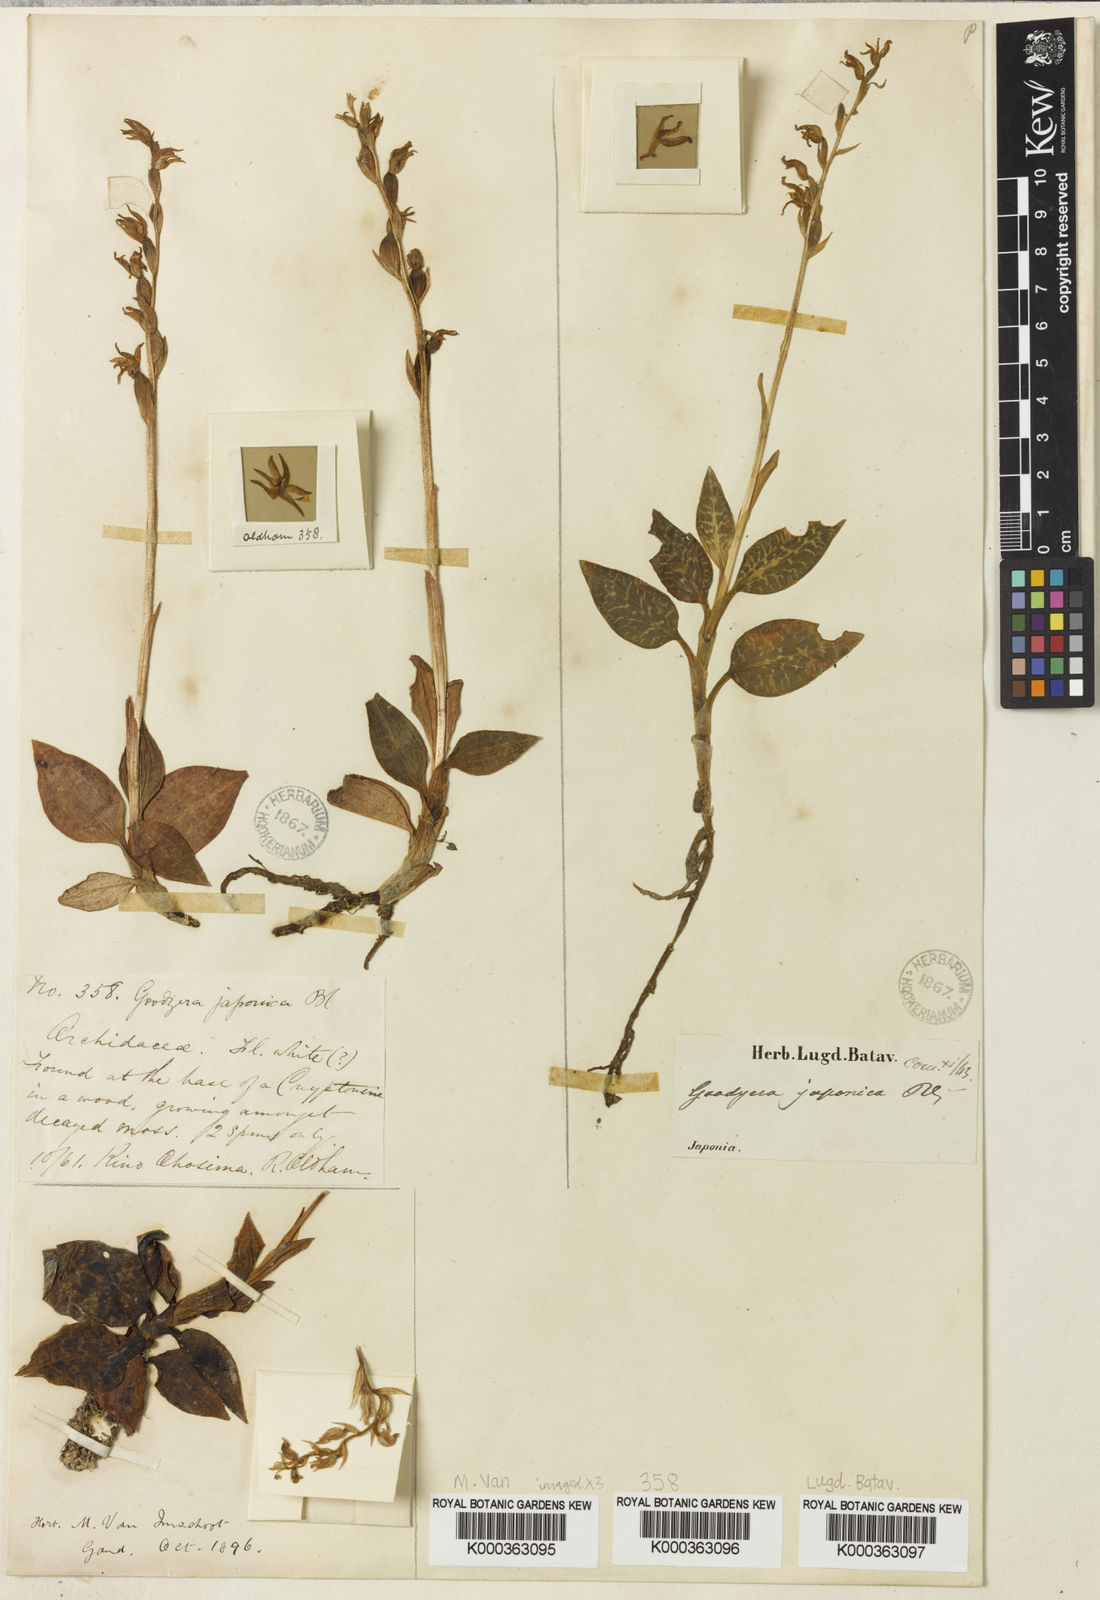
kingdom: Plantae
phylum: Tracheophyta
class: Liliopsida
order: Asparagales
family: Orchidaceae
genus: Goodyera
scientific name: Goodyera schlechtendaliana
